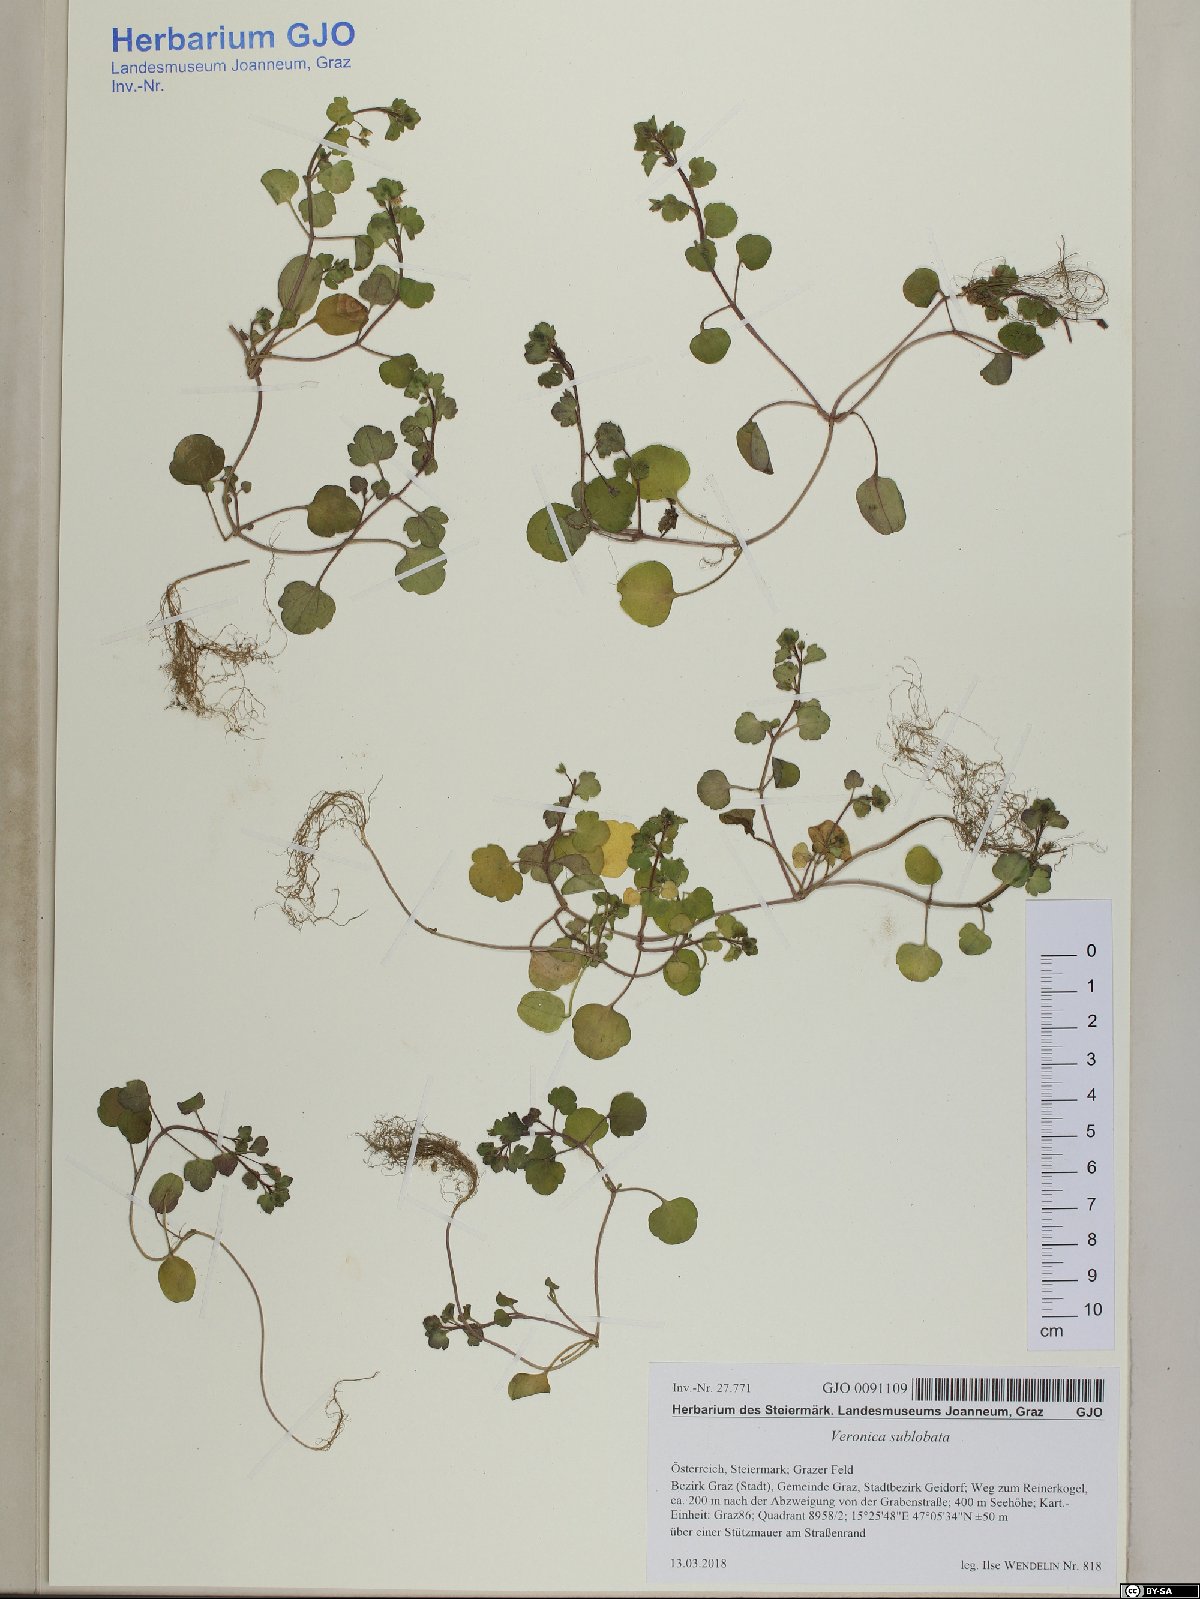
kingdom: Plantae
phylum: Tracheophyta
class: Magnoliopsida
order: Lamiales
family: Plantaginaceae
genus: Veronica
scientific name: Veronica sublobata
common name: False ivy-leaved speedwell
